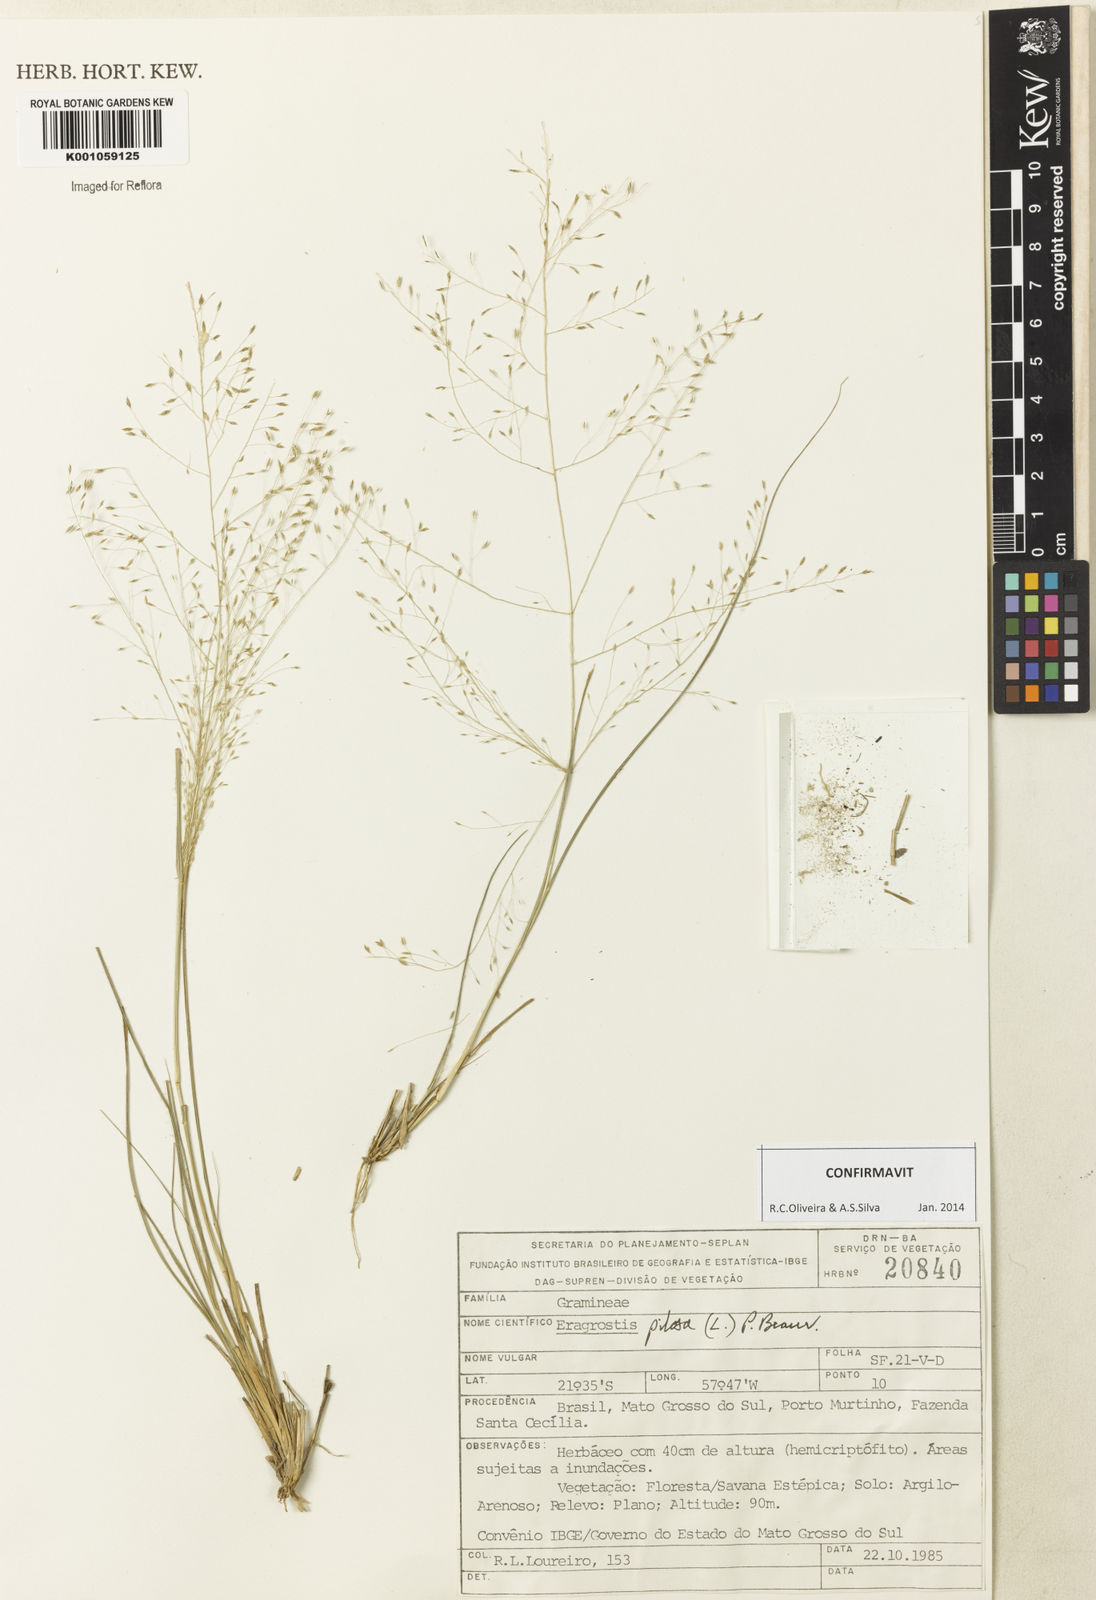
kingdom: Plantae
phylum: Tracheophyta
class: Liliopsida
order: Poales
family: Poaceae
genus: Eragrostis
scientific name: Eragrostis pilosa
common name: Indian lovegrass
